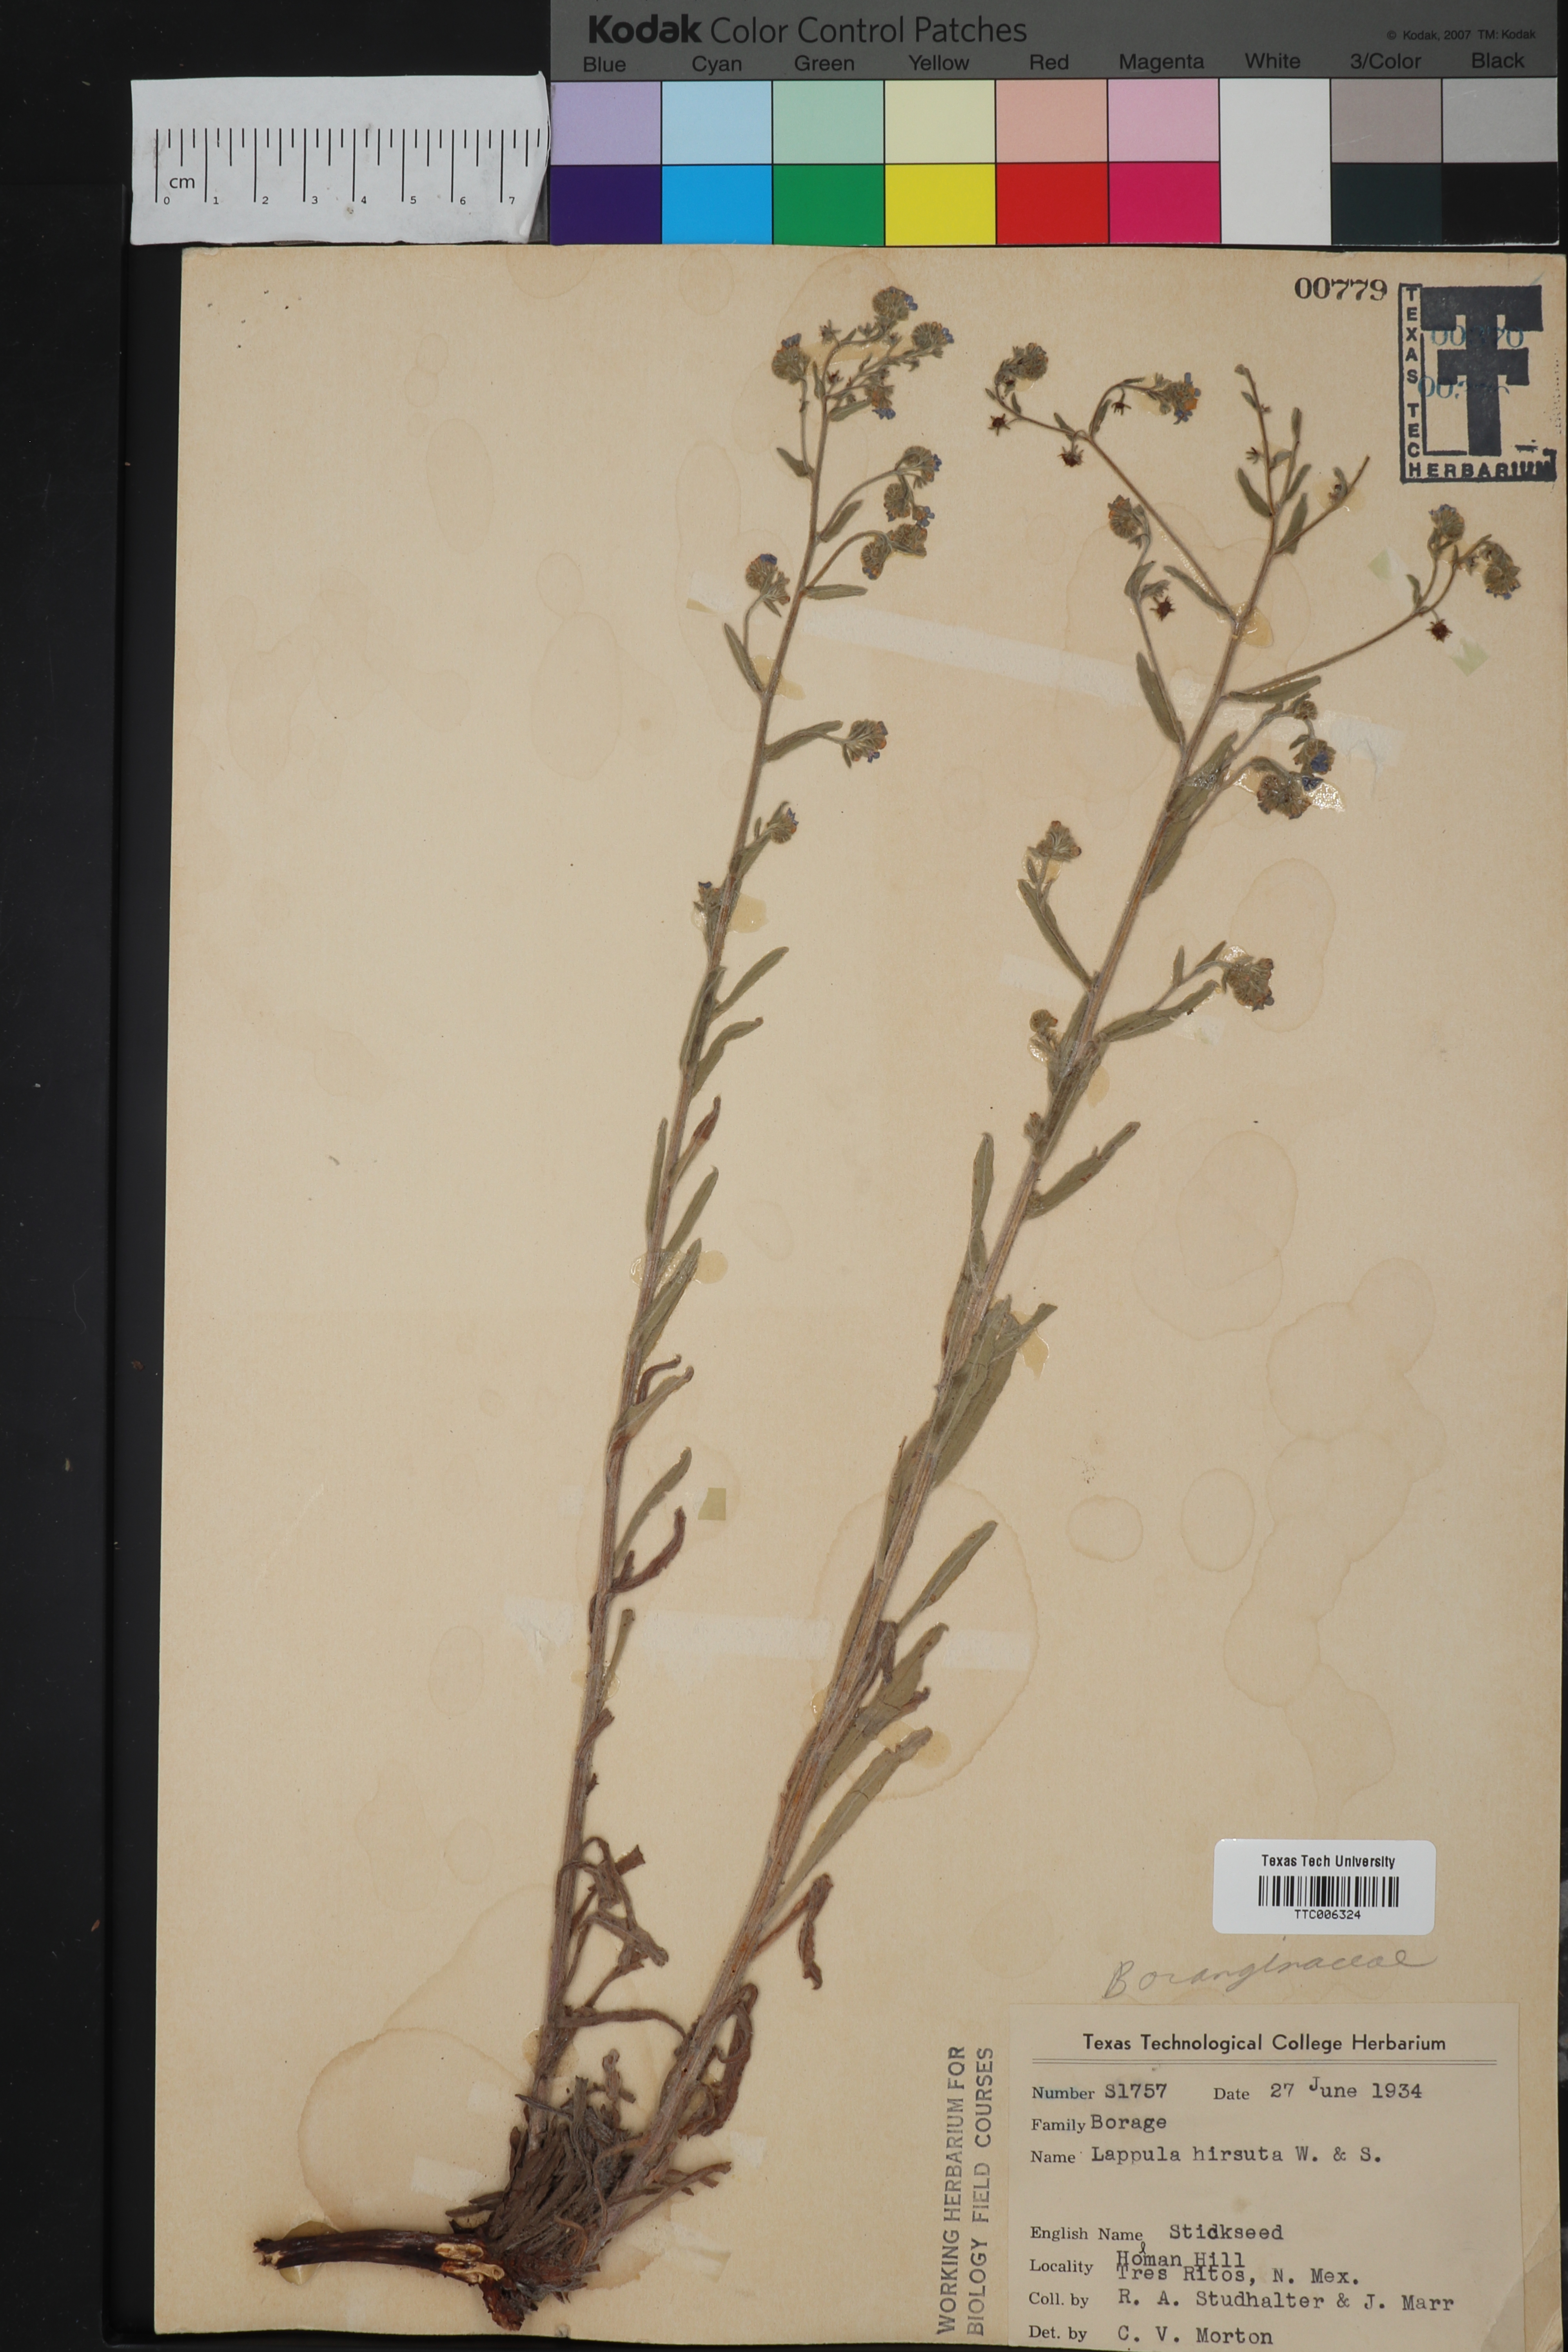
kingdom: Plantae
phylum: Tracheophyta
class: Magnoliopsida
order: Boraginales
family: Boraginaceae
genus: Hackelia
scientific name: Hackelia hirsuta
